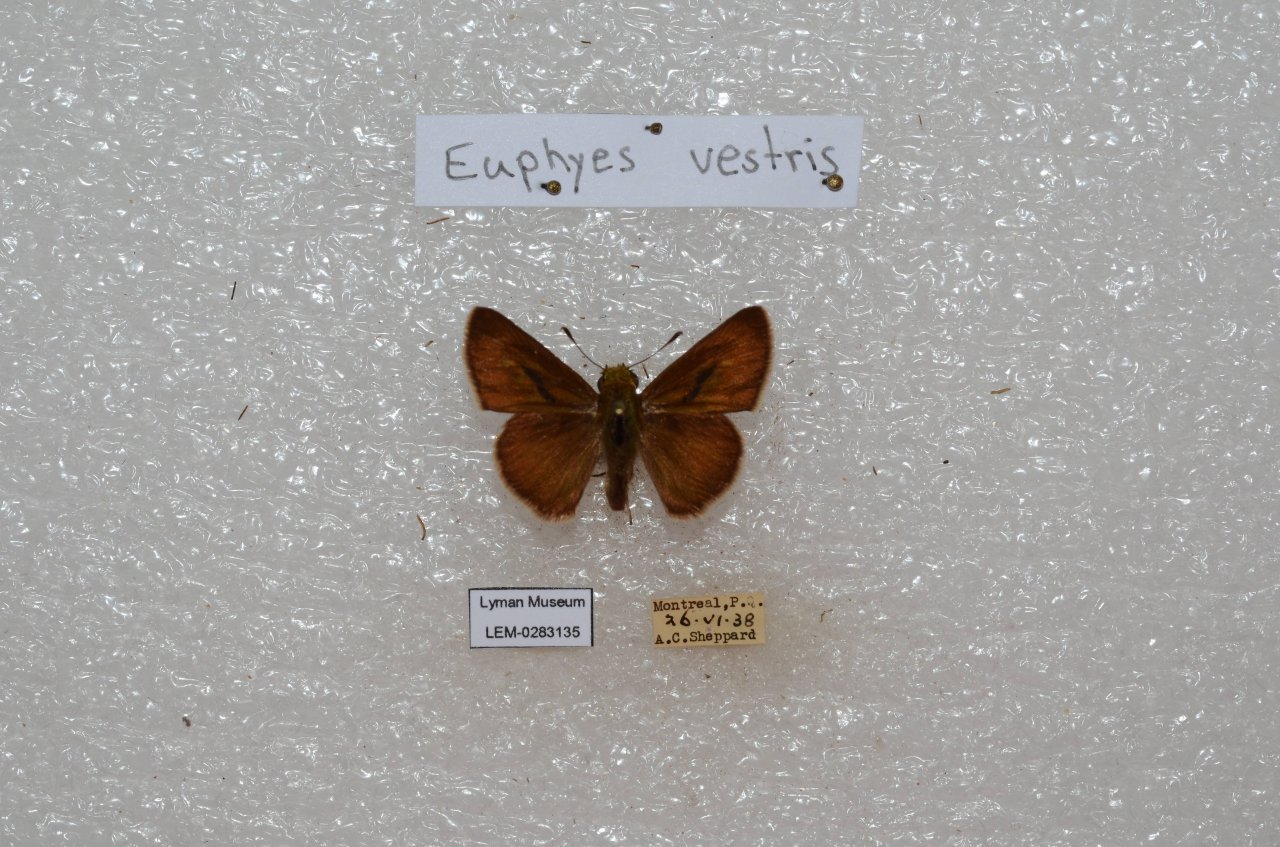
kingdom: Animalia
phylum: Arthropoda
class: Insecta
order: Lepidoptera
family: Hesperiidae
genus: Euphyes
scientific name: Euphyes vestris
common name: Dun Skipper
